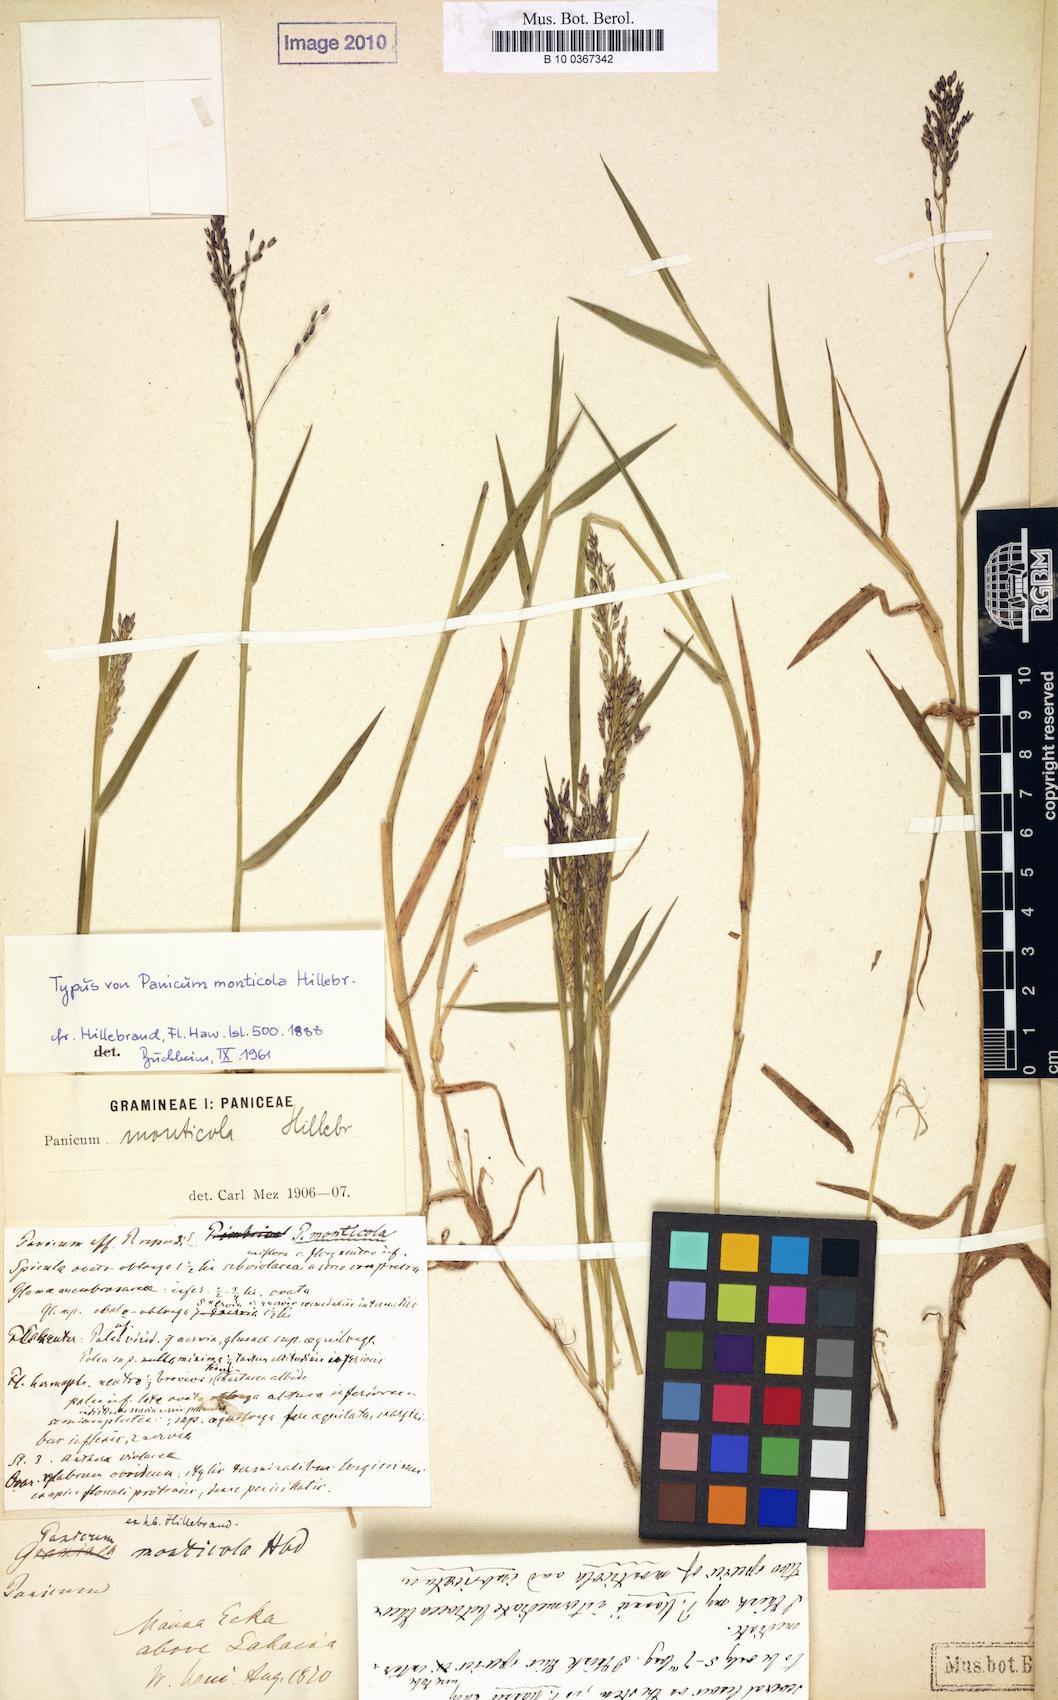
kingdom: Plantae
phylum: Tracheophyta
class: Liliopsida
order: Poales
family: Poaceae
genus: Dichanthelium
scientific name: Dichanthelium hillebrandianum
